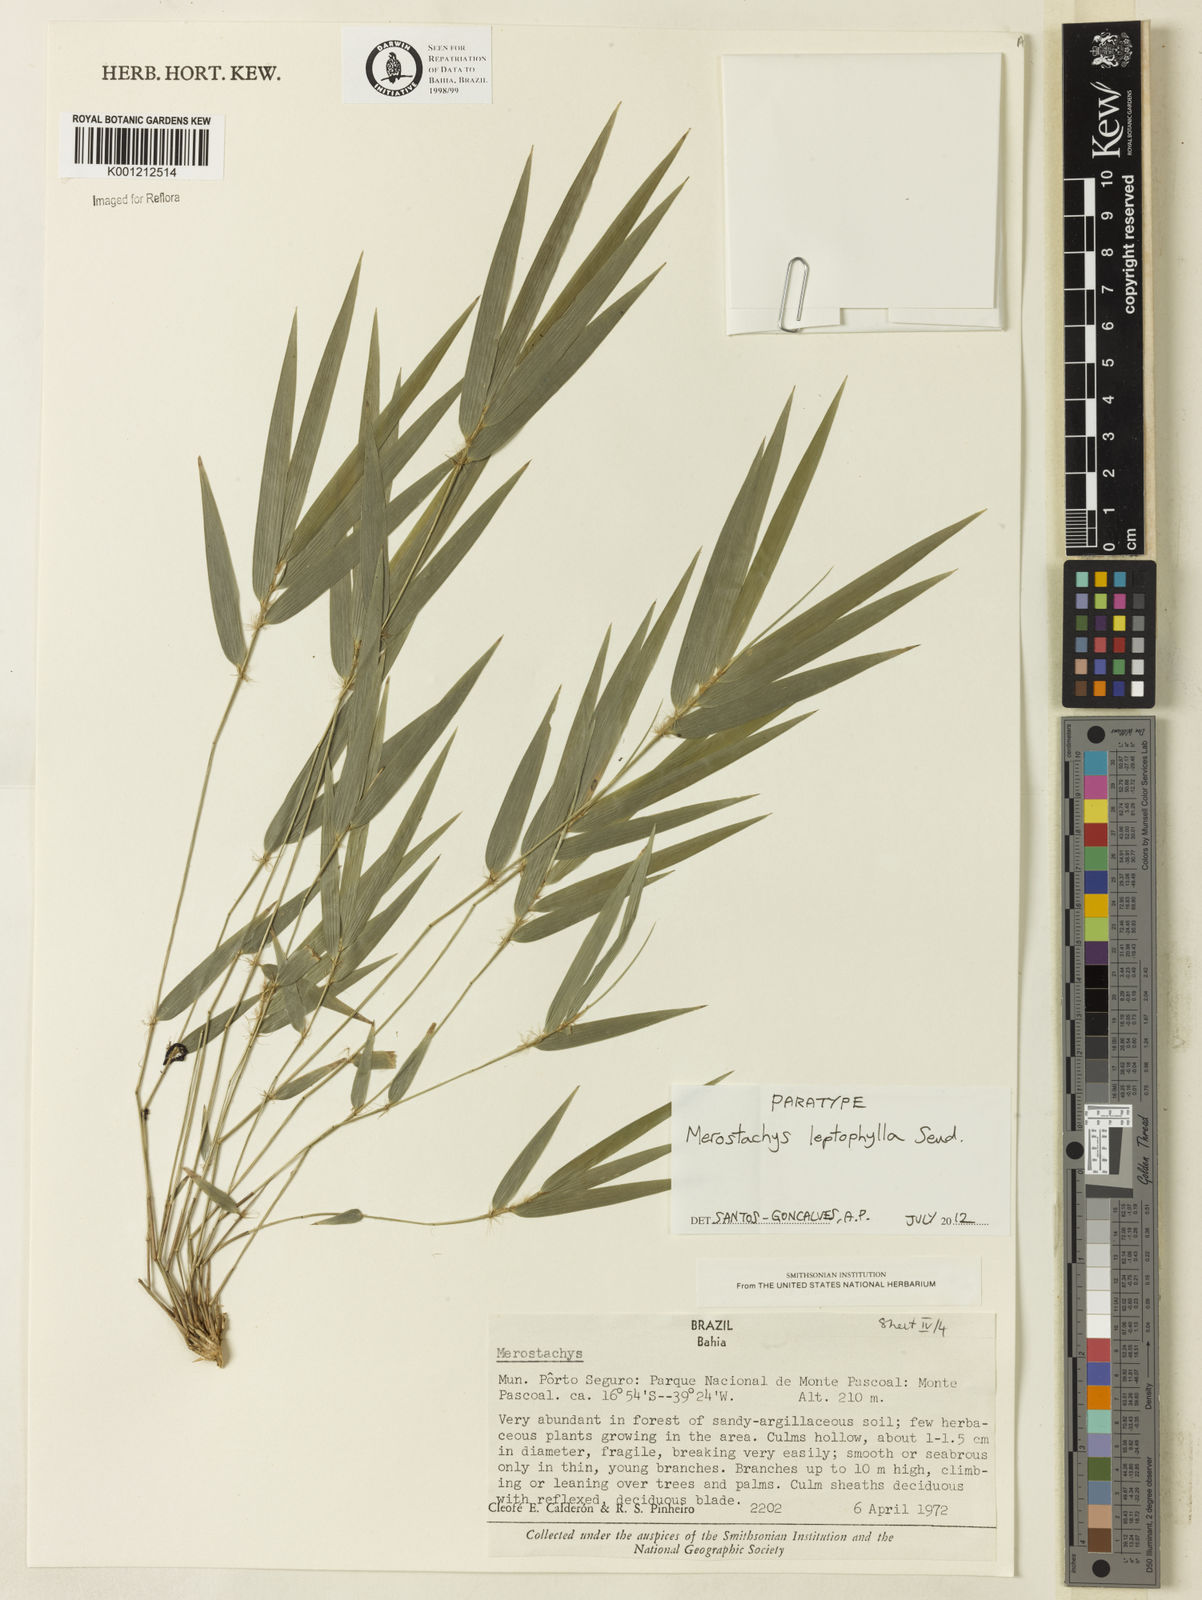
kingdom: Plantae
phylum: Tracheophyta
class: Liliopsida
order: Poales
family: Poaceae
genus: Merostachys
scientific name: Merostachys leptophylla
